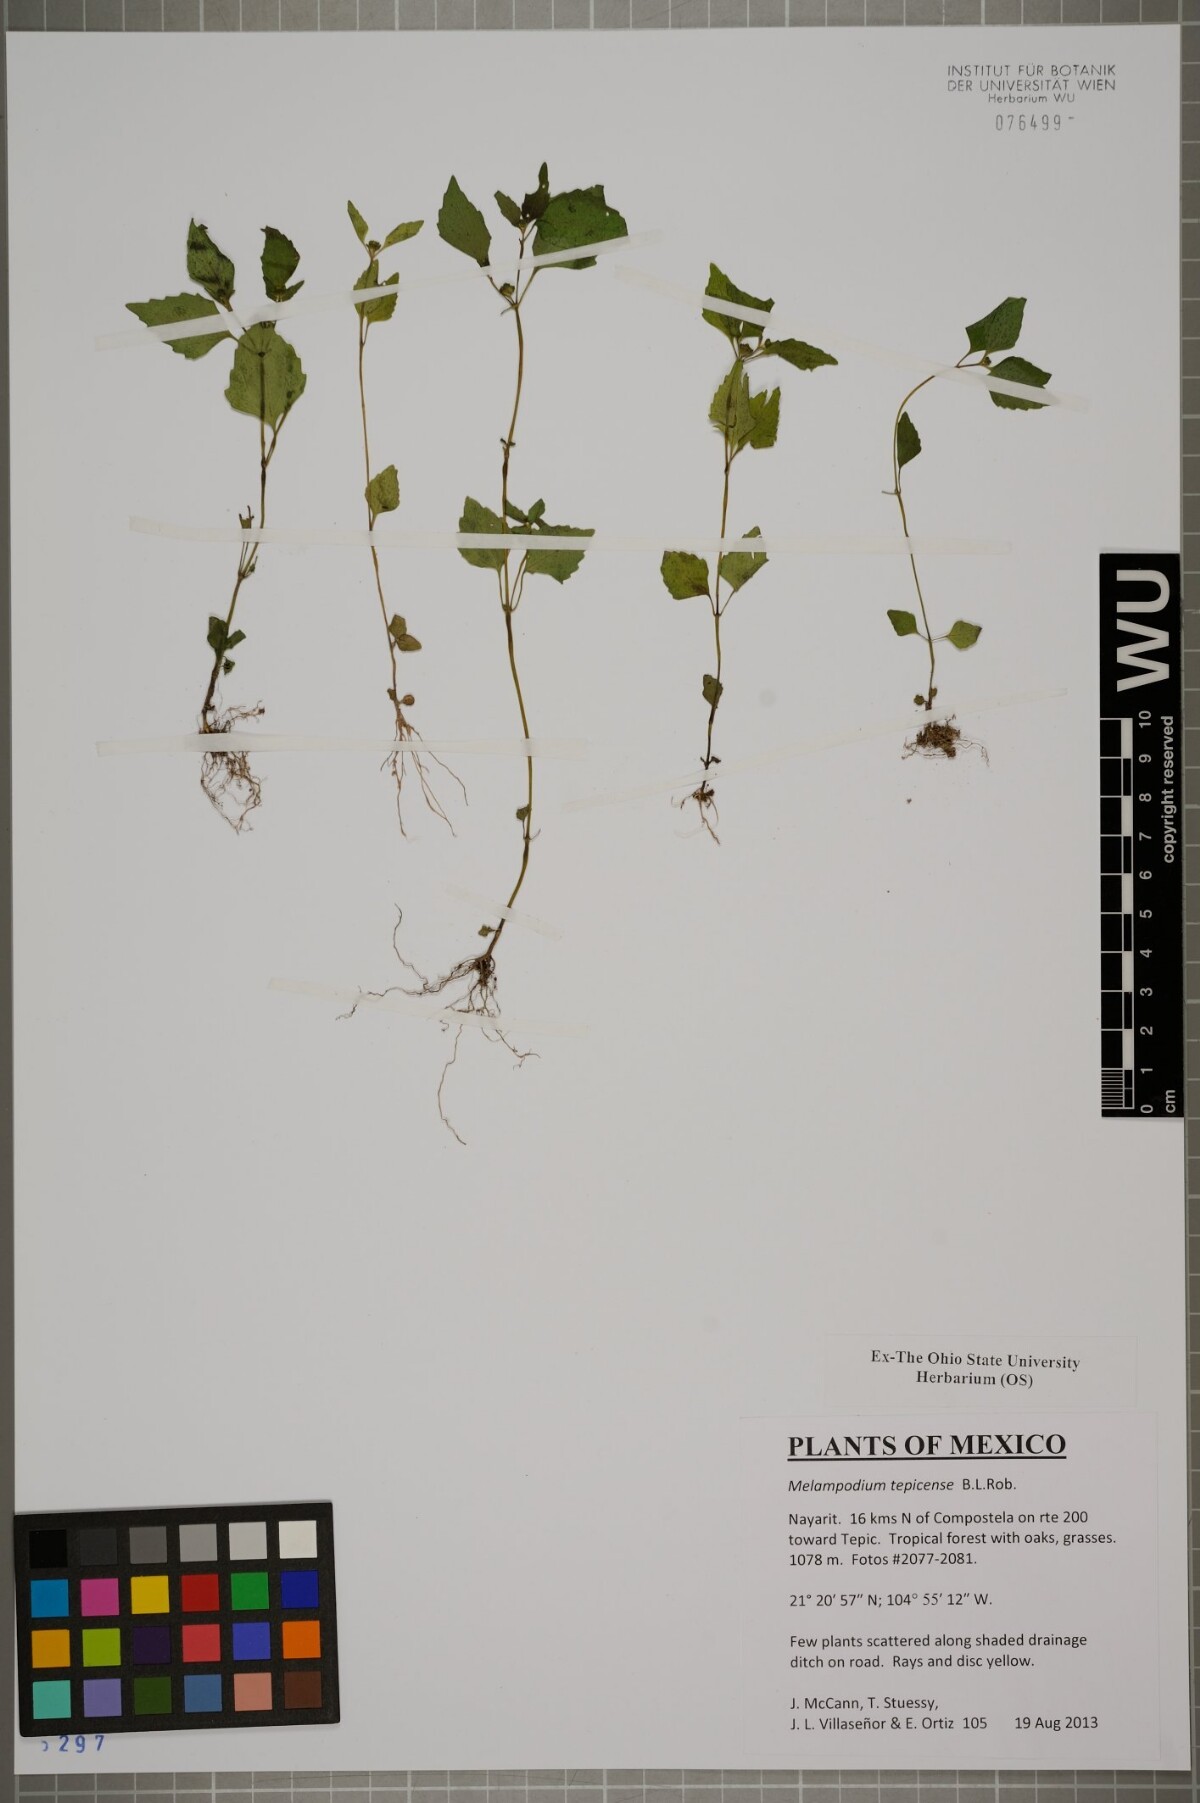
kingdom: Plantae
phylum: Tracheophyta
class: Magnoliopsida
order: Asterales
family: Asteraceae
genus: Melampodium
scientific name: Melampodium tepicense
